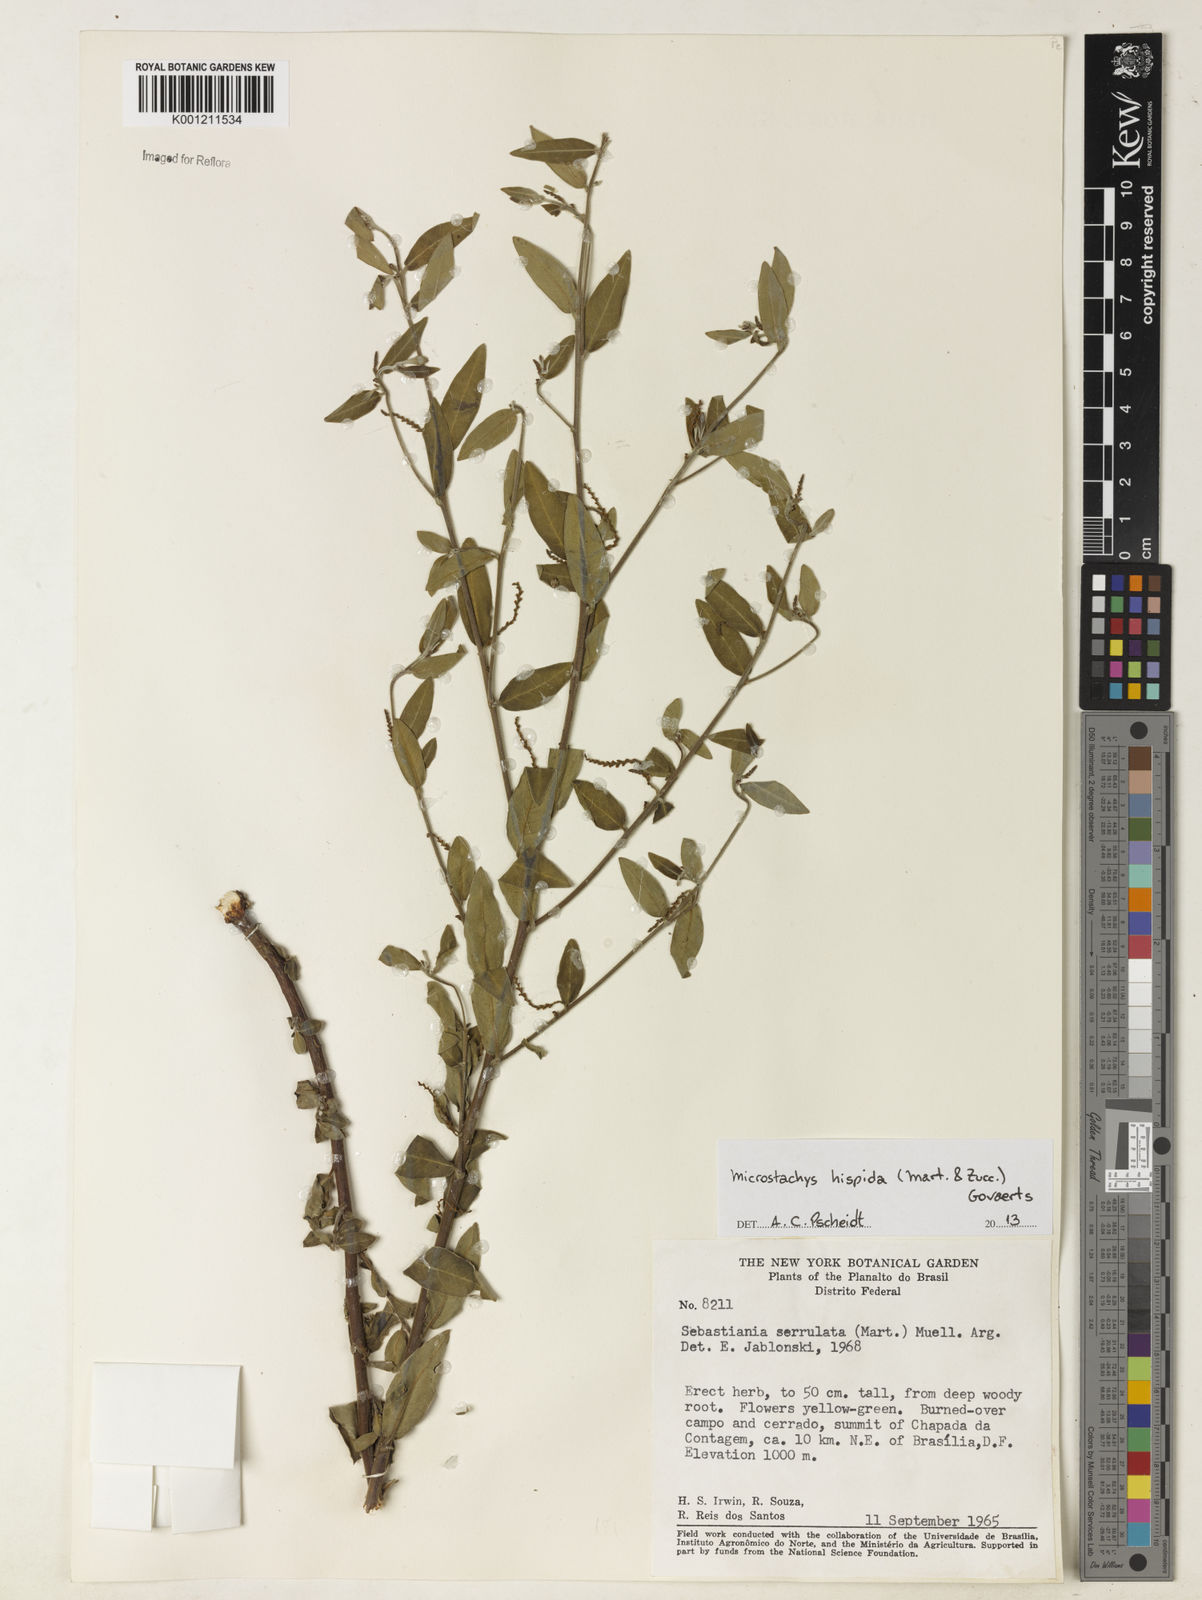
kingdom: Plantae
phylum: Tracheophyta
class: Magnoliopsida
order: Malpighiales
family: Euphorbiaceae
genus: Microstachys
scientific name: Microstachys hispida
